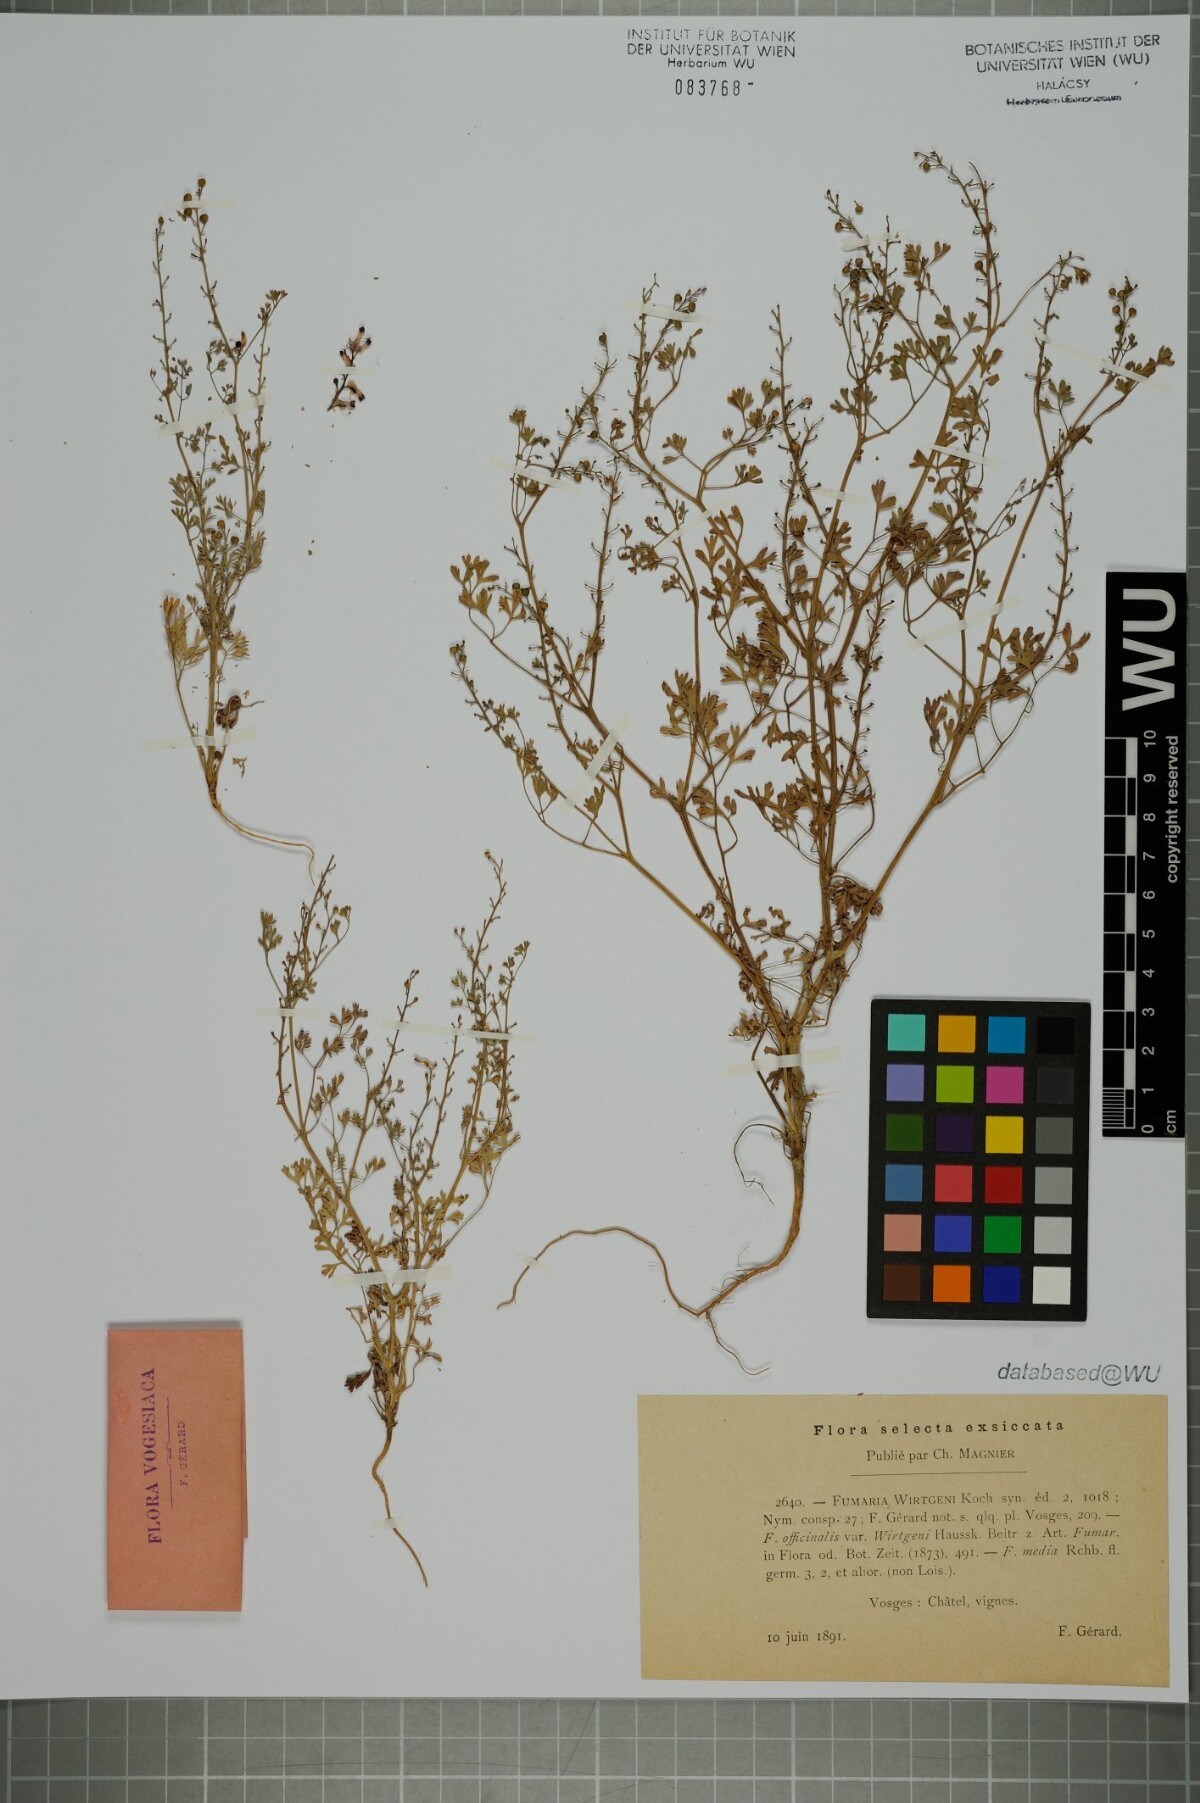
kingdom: Plantae
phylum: Tracheophyta
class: Magnoliopsida
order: Ranunculales
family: Papaveraceae
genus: Fumaria
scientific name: Fumaria wirtgenii
